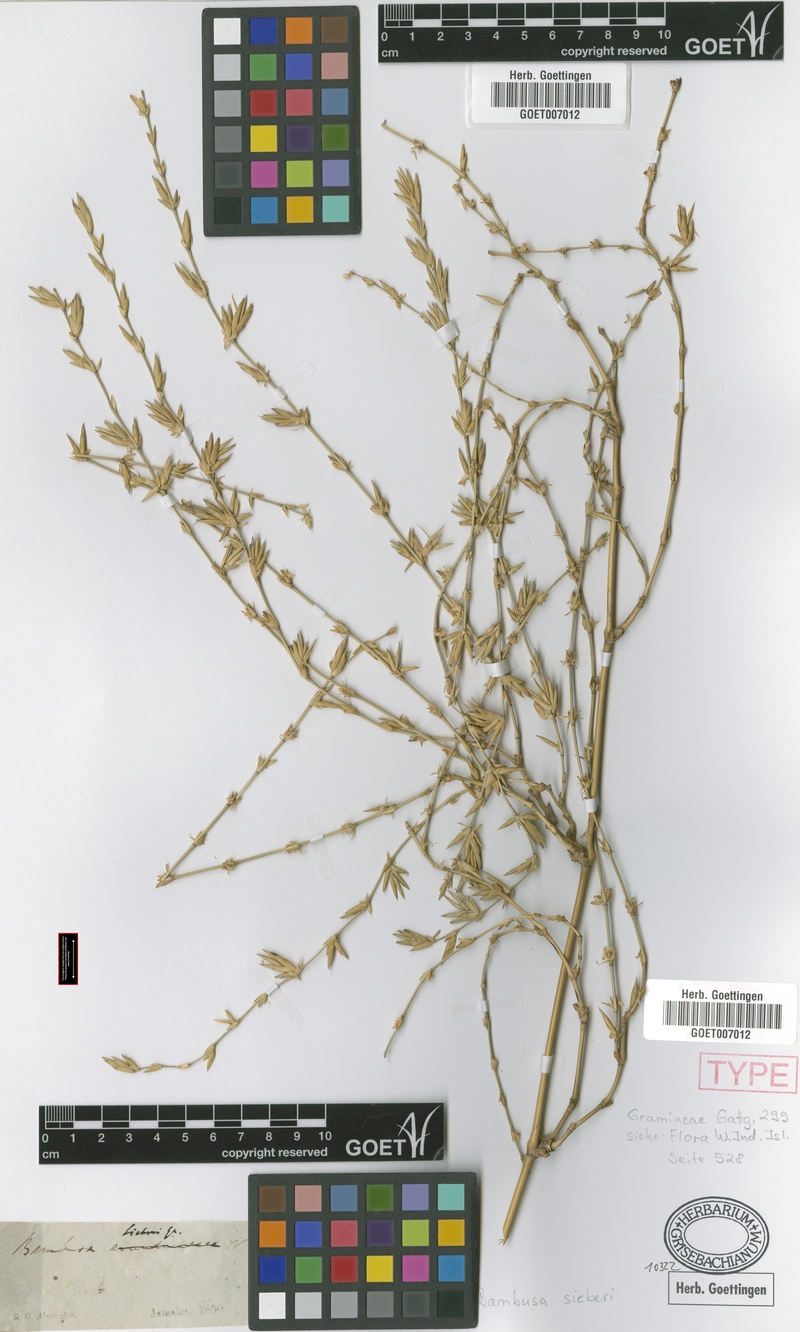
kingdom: Plantae
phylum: Tracheophyta
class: Liliopsida
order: Poales
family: Poaceae
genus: Bambusa
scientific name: Bambusa vulgaris
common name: Common bamboo
